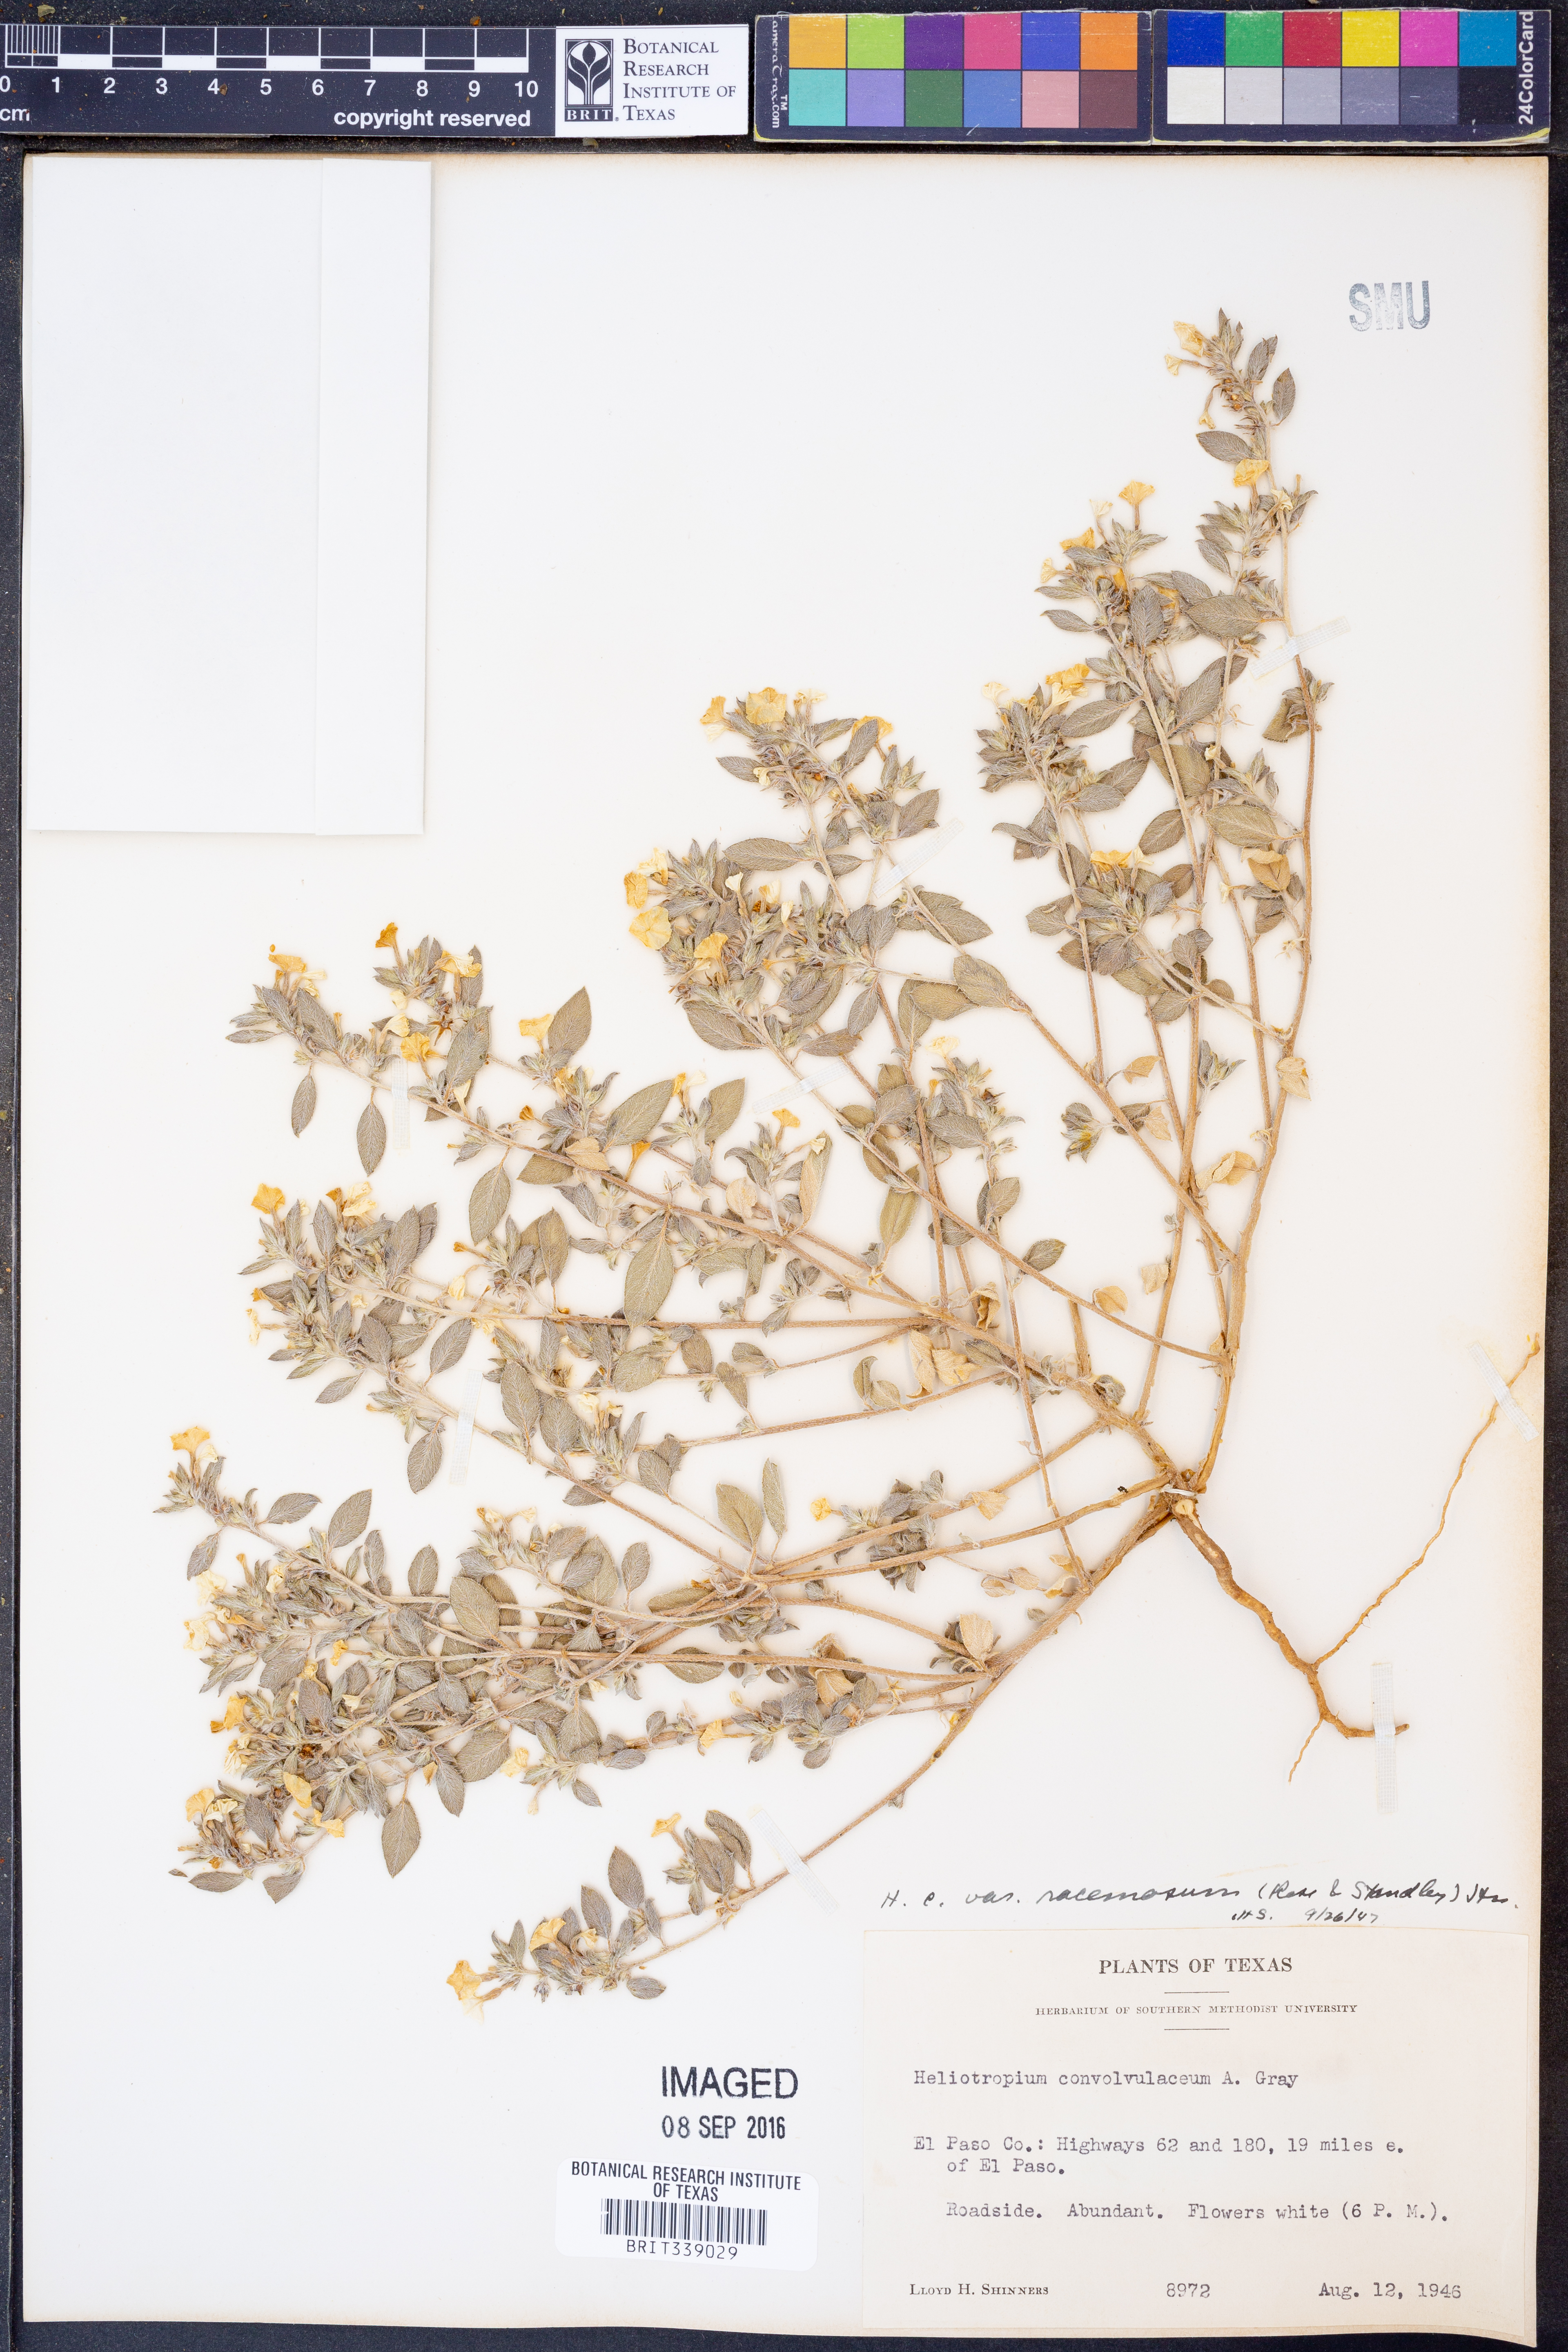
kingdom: Plantae
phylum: Tracheophyta
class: Magnoliopsida
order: Boraginales
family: Heliotropiaceae
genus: Euploca
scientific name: Euploca racemosa
